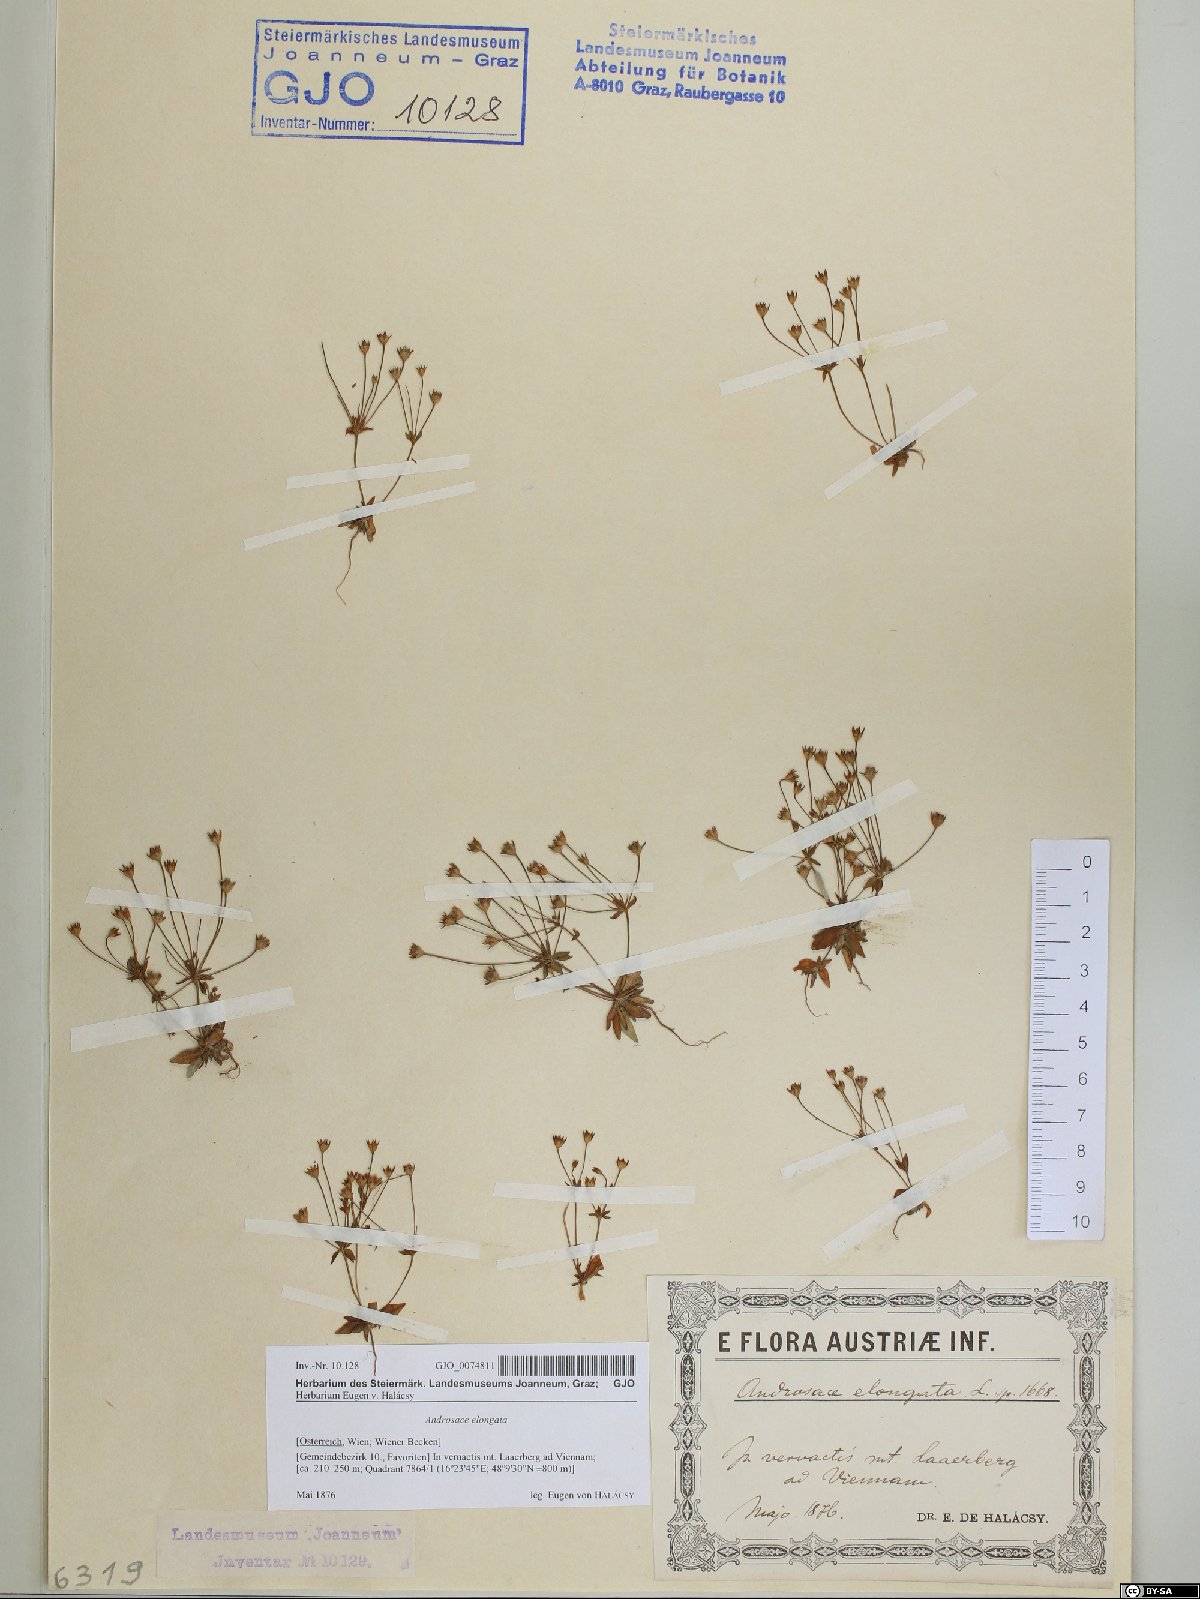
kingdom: Plantae
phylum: Tracheophyta
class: Magnoliopsida
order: Ericales
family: Primulaceae
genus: Androsace
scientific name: Androsace elongata
